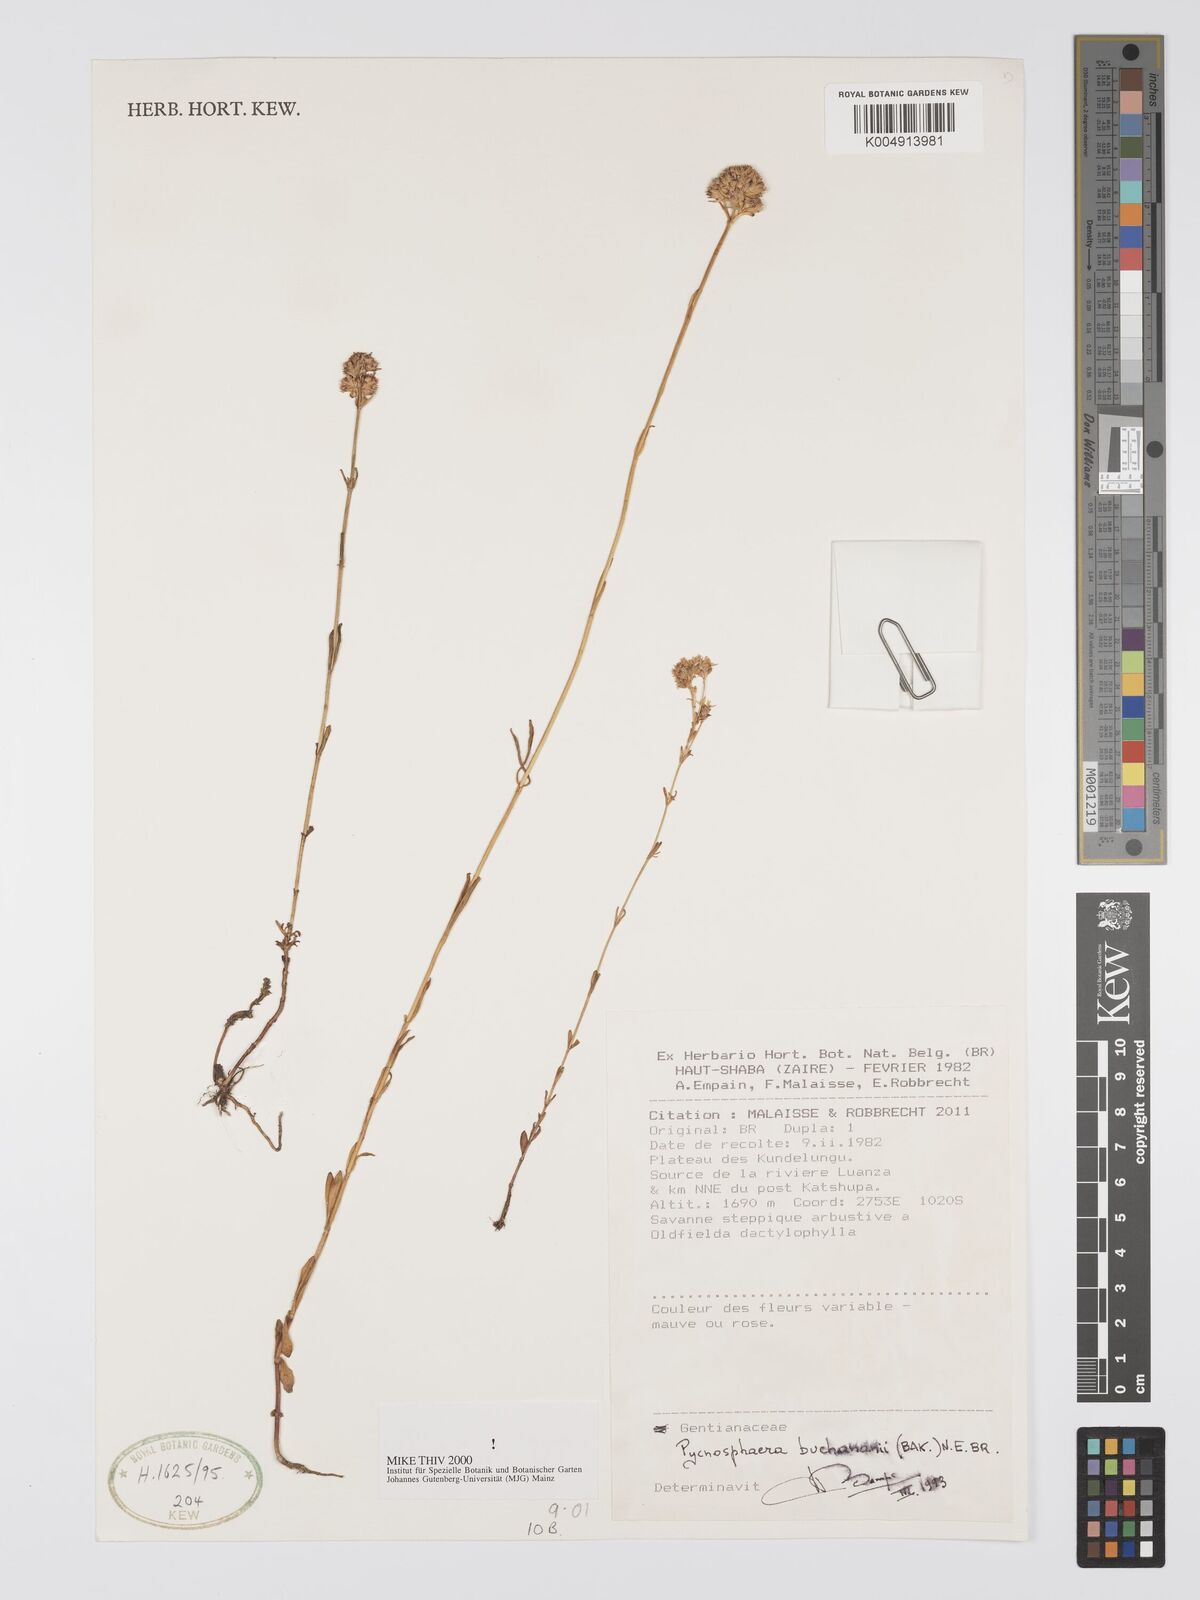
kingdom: Plantae
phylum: Tracheophyta
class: Magnoliopsida
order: Gentianales
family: Gentianaceae
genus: Pycnosphaera
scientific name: Pycnosphaera buchananii
